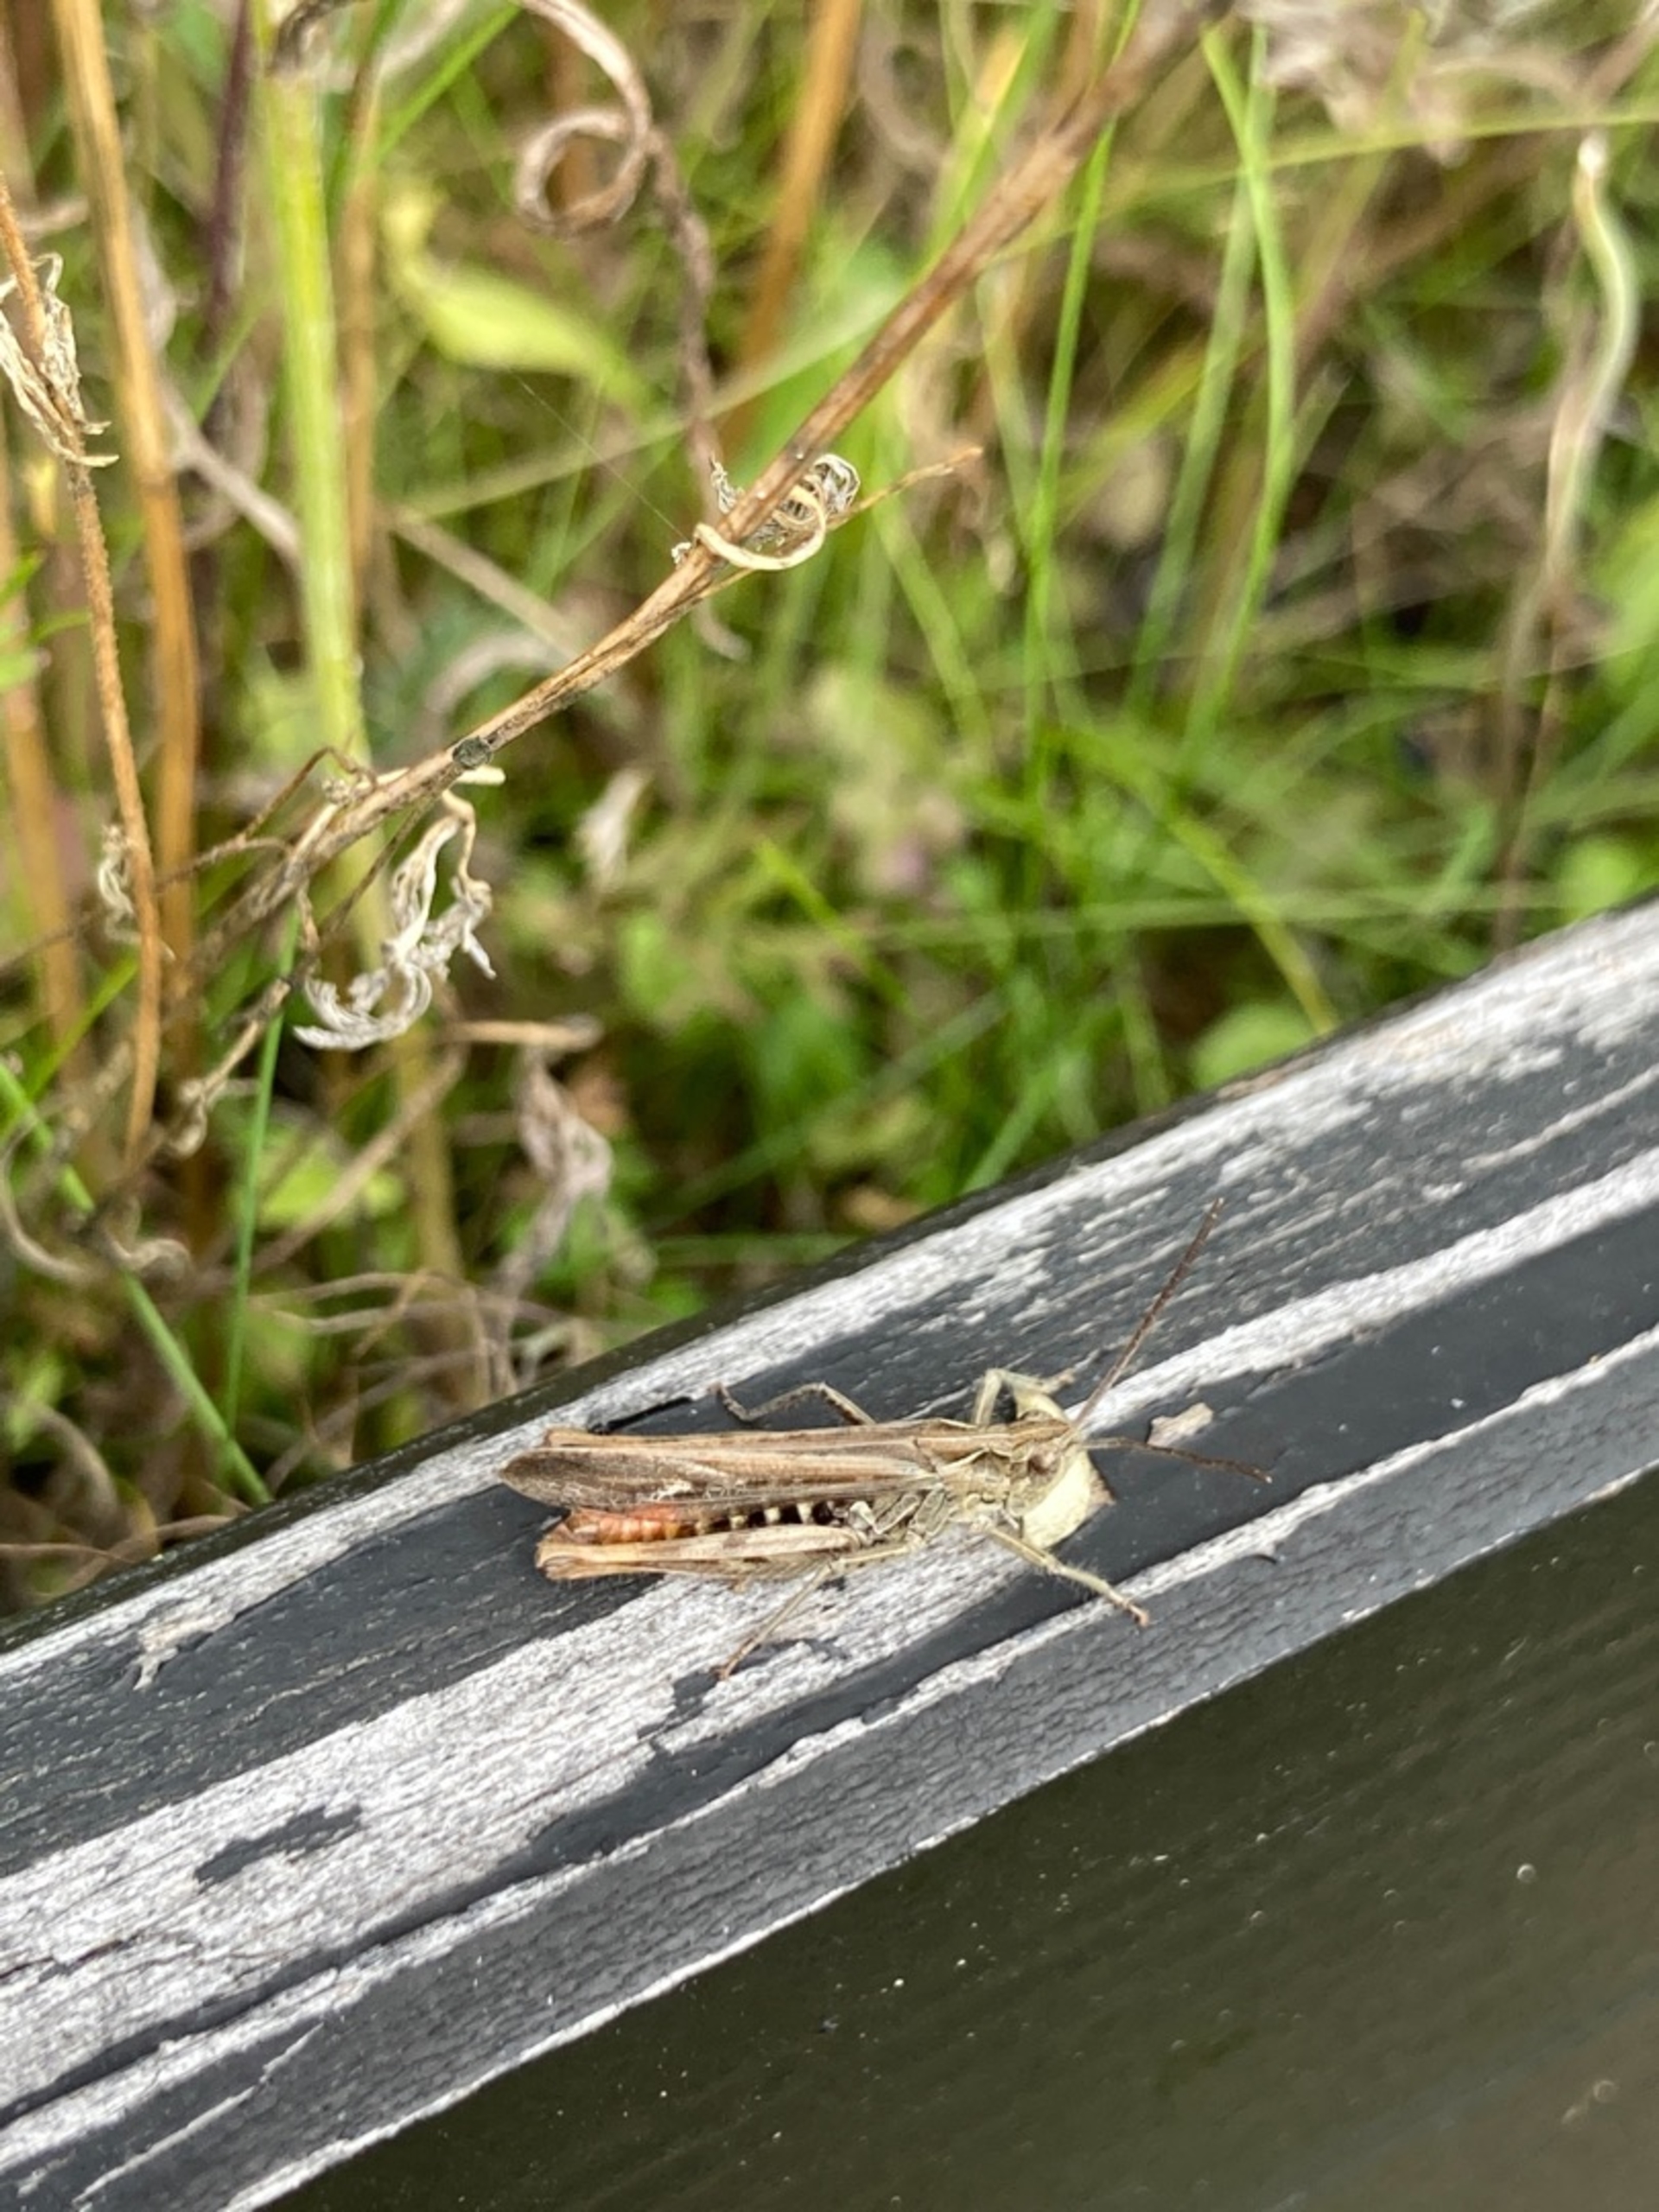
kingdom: Animalia
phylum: Arthropoda
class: Insecta
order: Orthoptera
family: Acrididae
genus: Chorthippus
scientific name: Chorthippus brunneus
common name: Almindelig markgræshoppe
